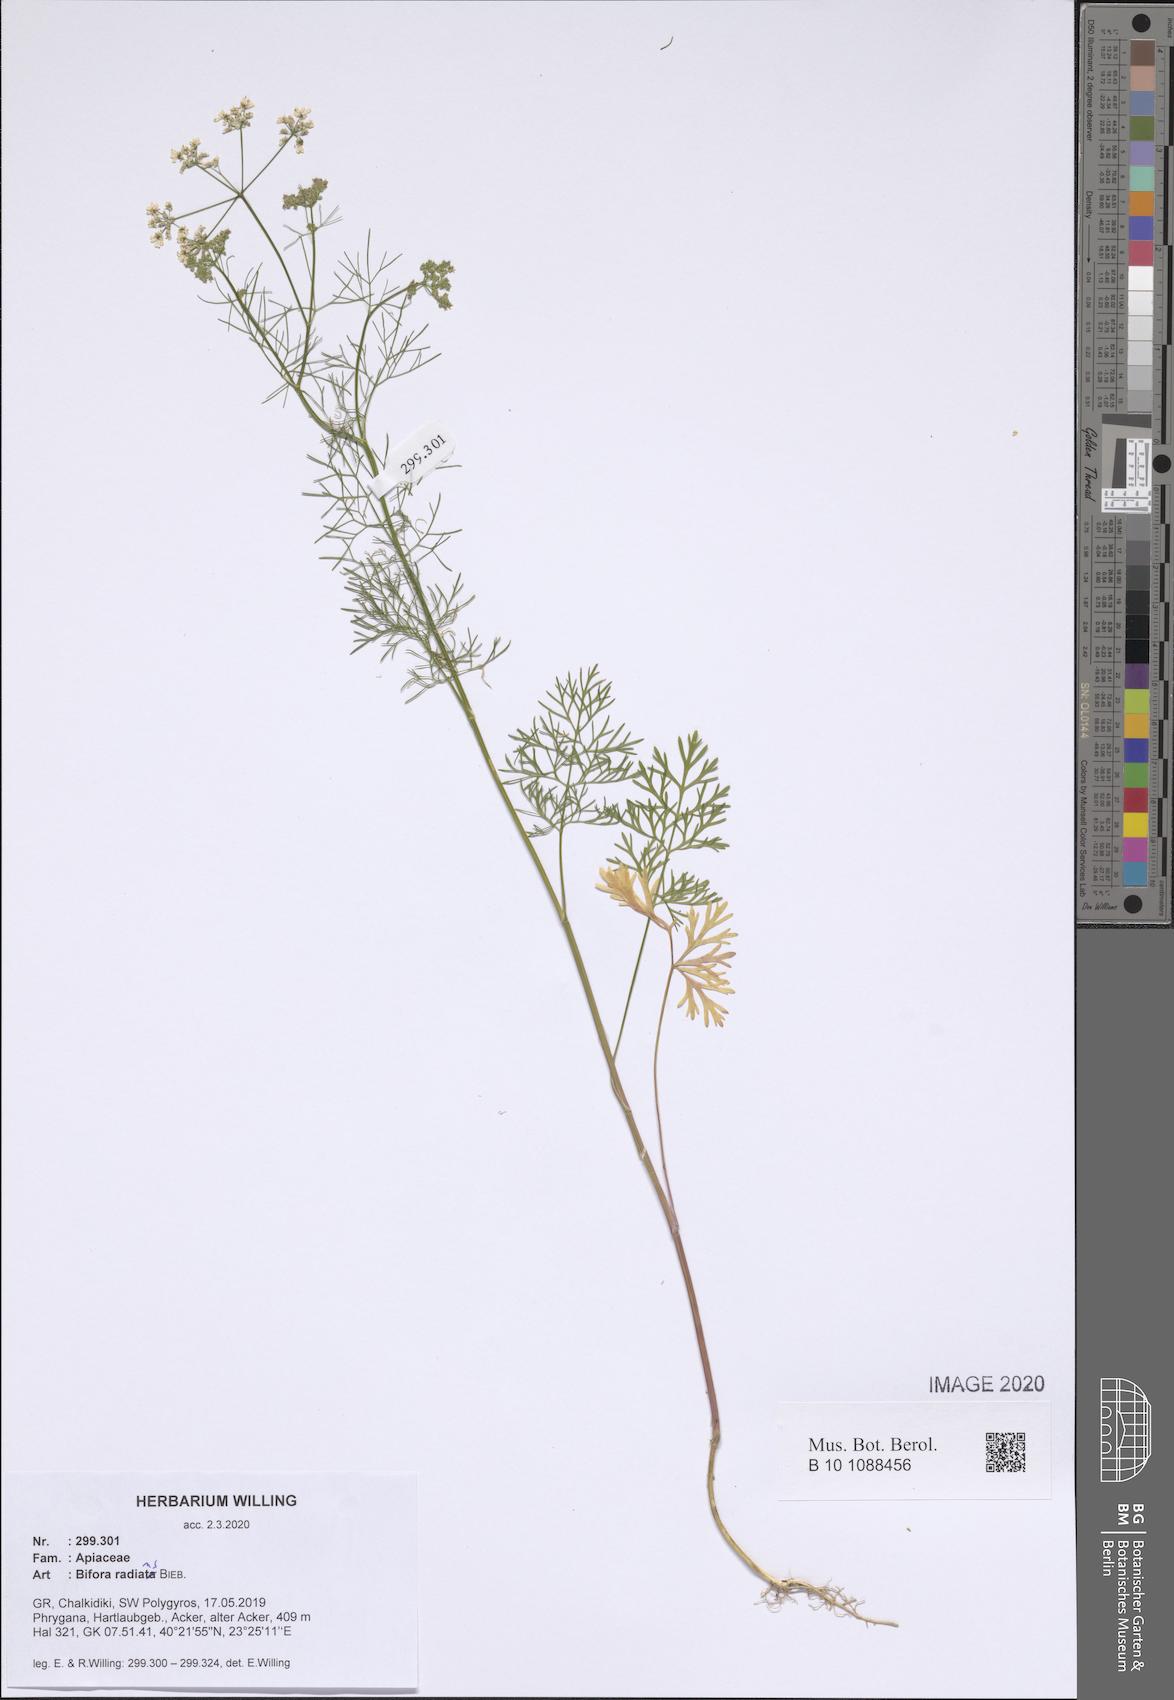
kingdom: Plantae
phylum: Tracheophyta
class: Magnoliopsida
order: Apiales
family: Apiaceae
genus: Bifora
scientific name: Bifora radians
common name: Wild bishop
